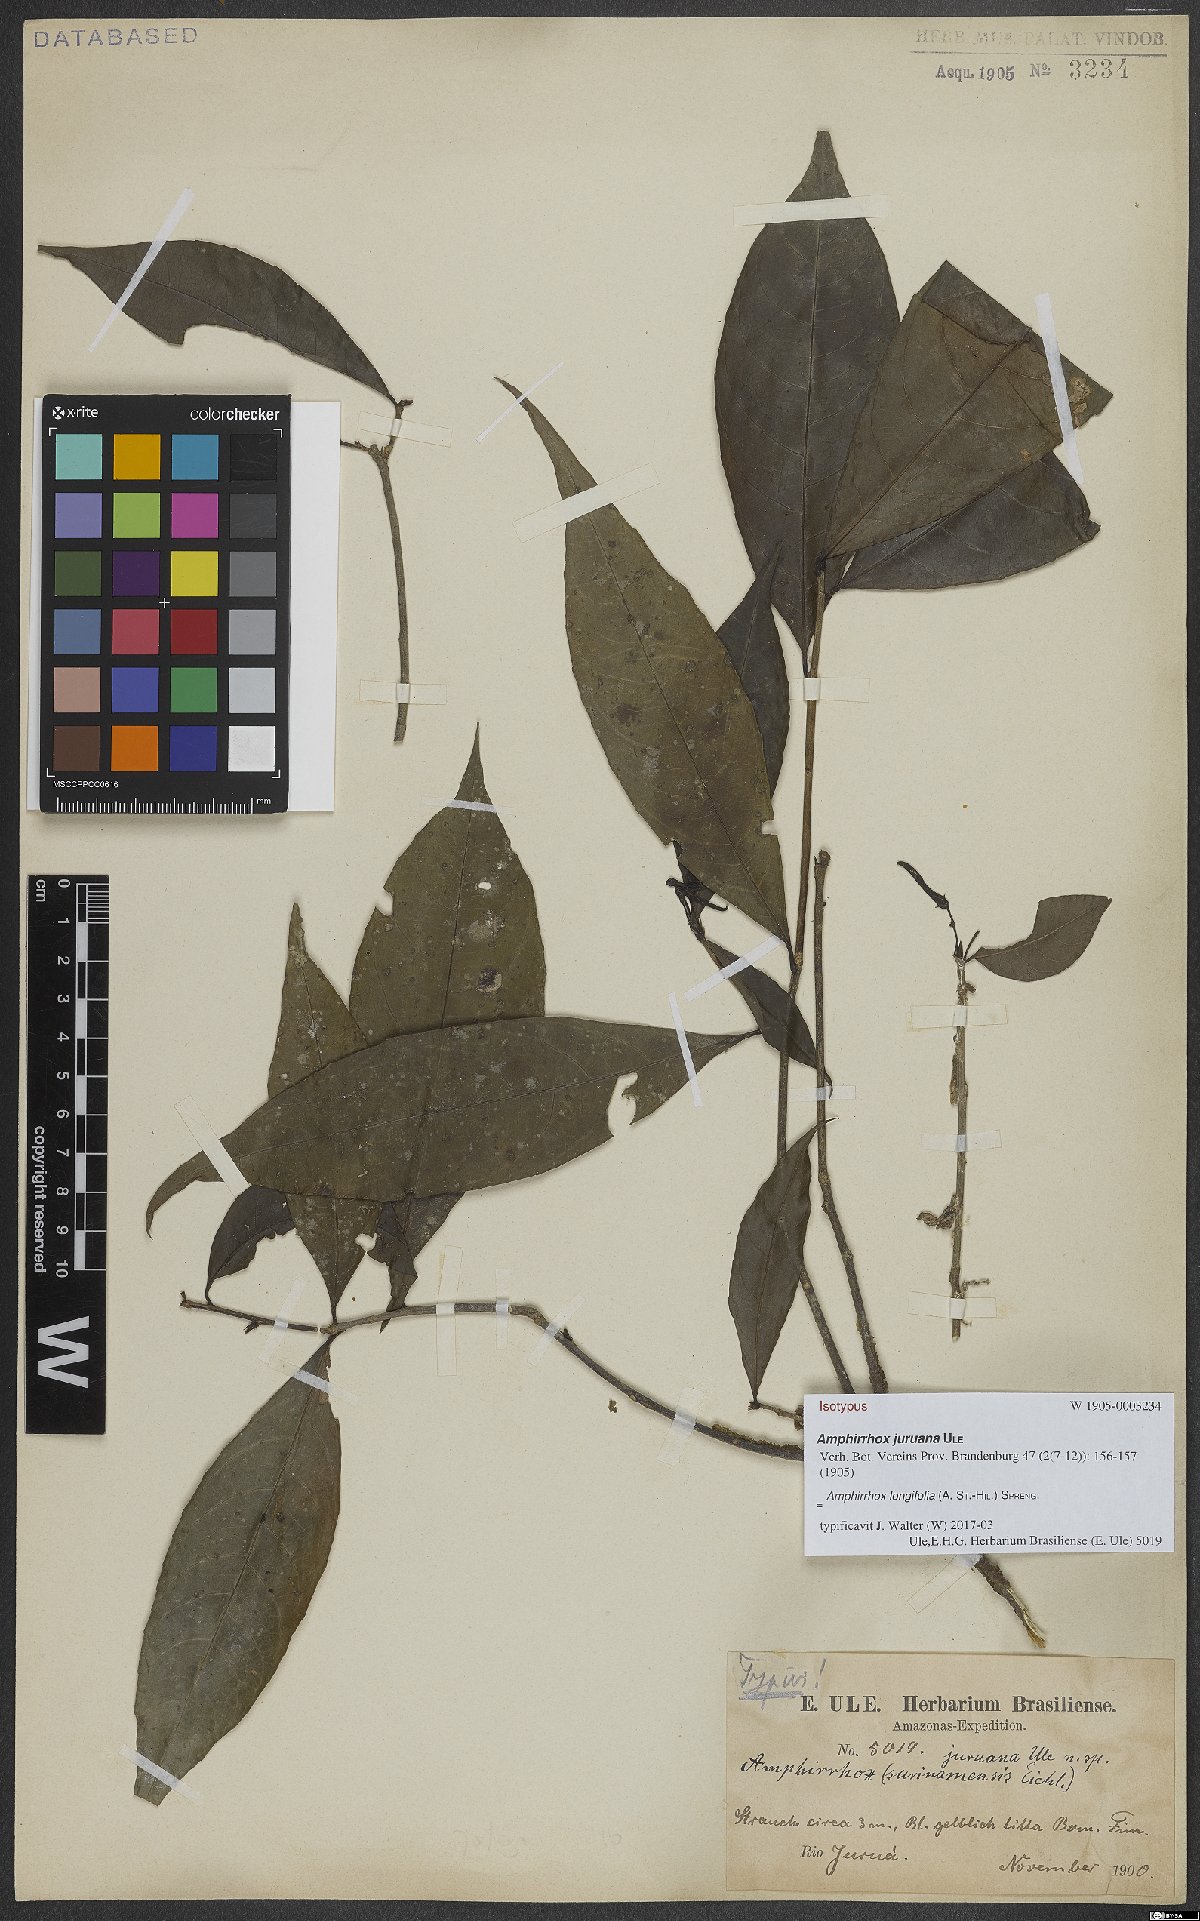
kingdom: Plantae
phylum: Tracheophyta
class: Magnoliopsida
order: Malpighiales
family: Violaceae
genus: Amphirrhox
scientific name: Amphirrhox longifolia
